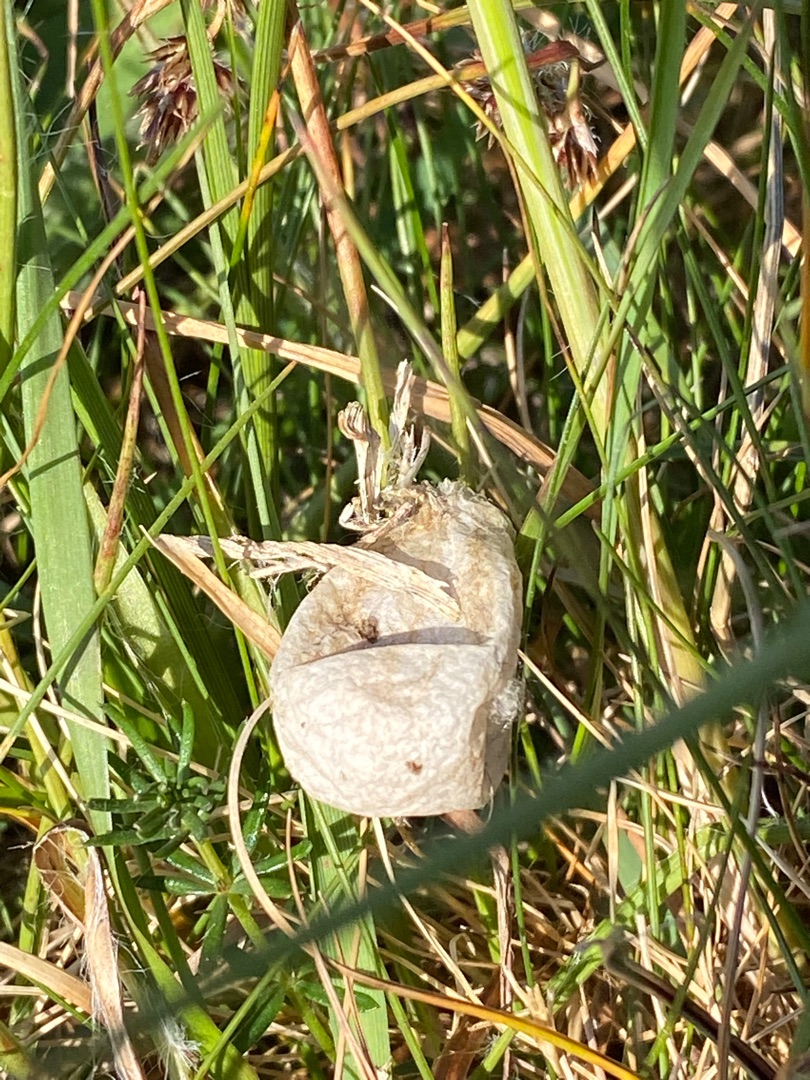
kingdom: Animalia
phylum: Arthropoda
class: Arachnida
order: Araneae
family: Araneidae
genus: Argiope
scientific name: Argiope bruennichi
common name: Hvepseedderkop
